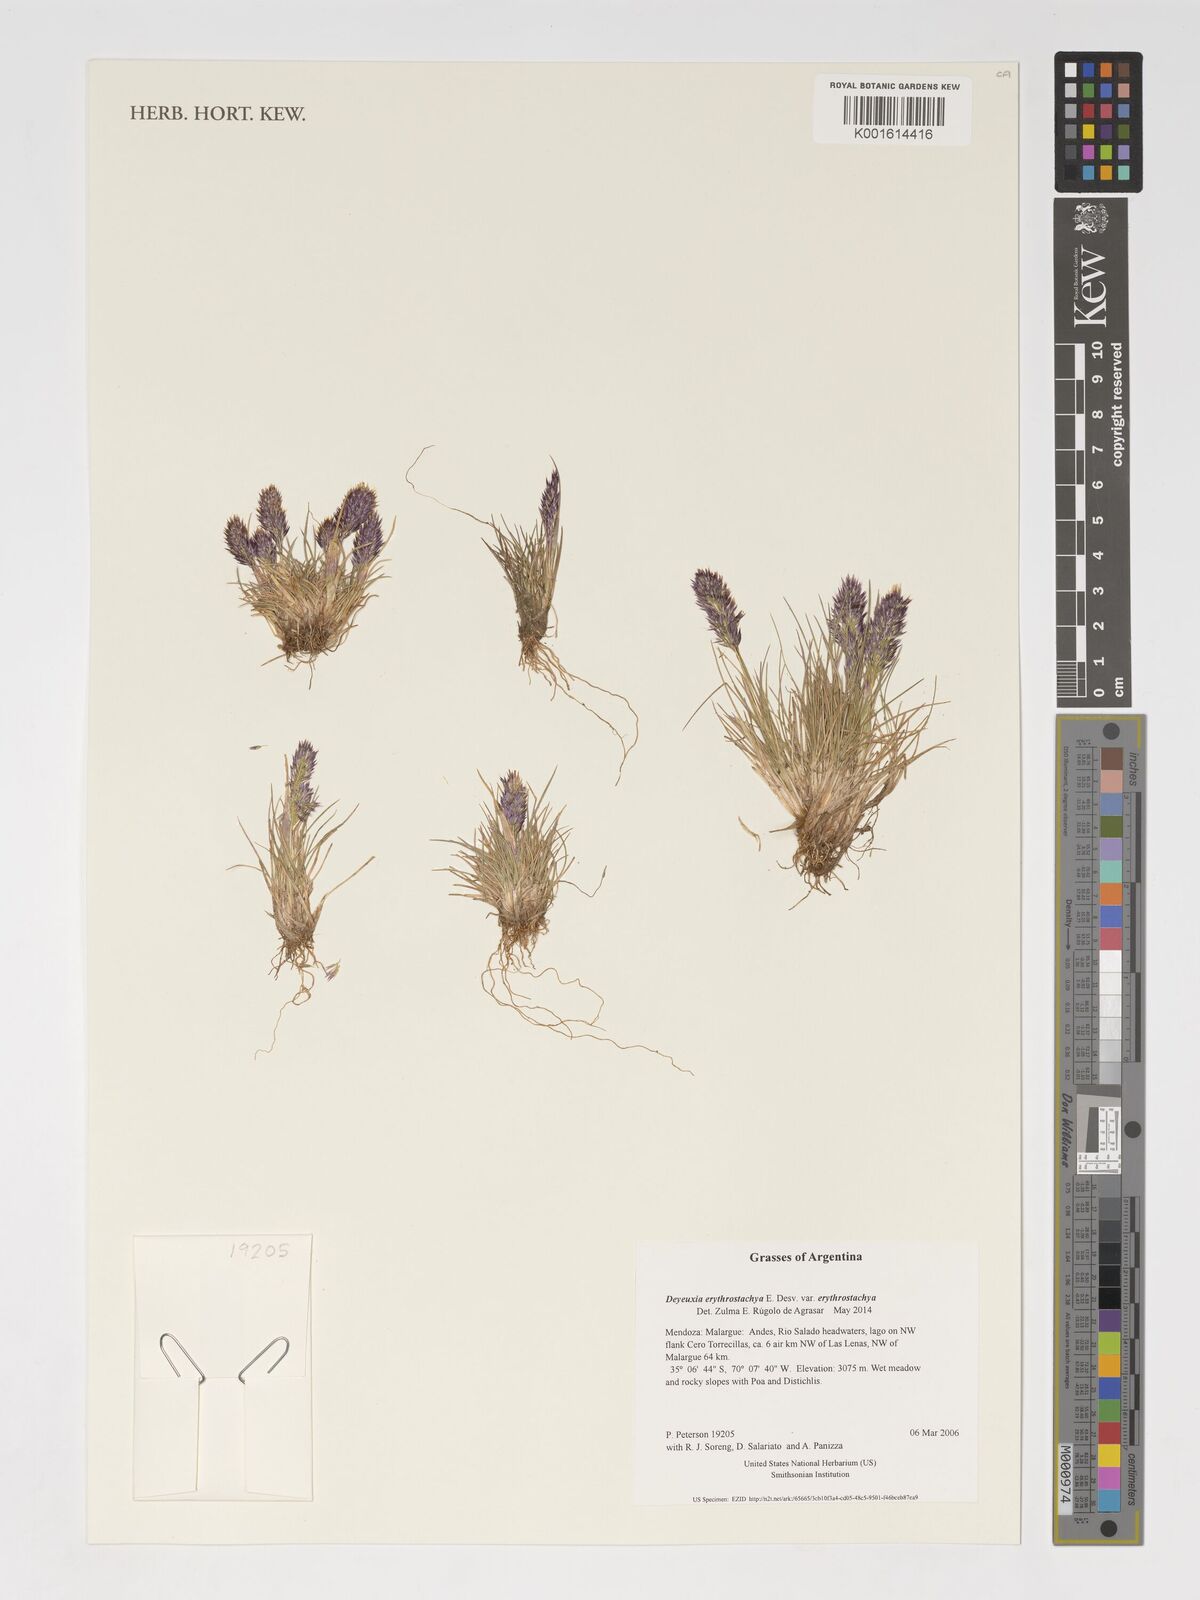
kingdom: Plantae
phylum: Tracheophyta
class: Liliopsida
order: Poales
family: Poaceae
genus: Deschampsia
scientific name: Deschampsia gayana
